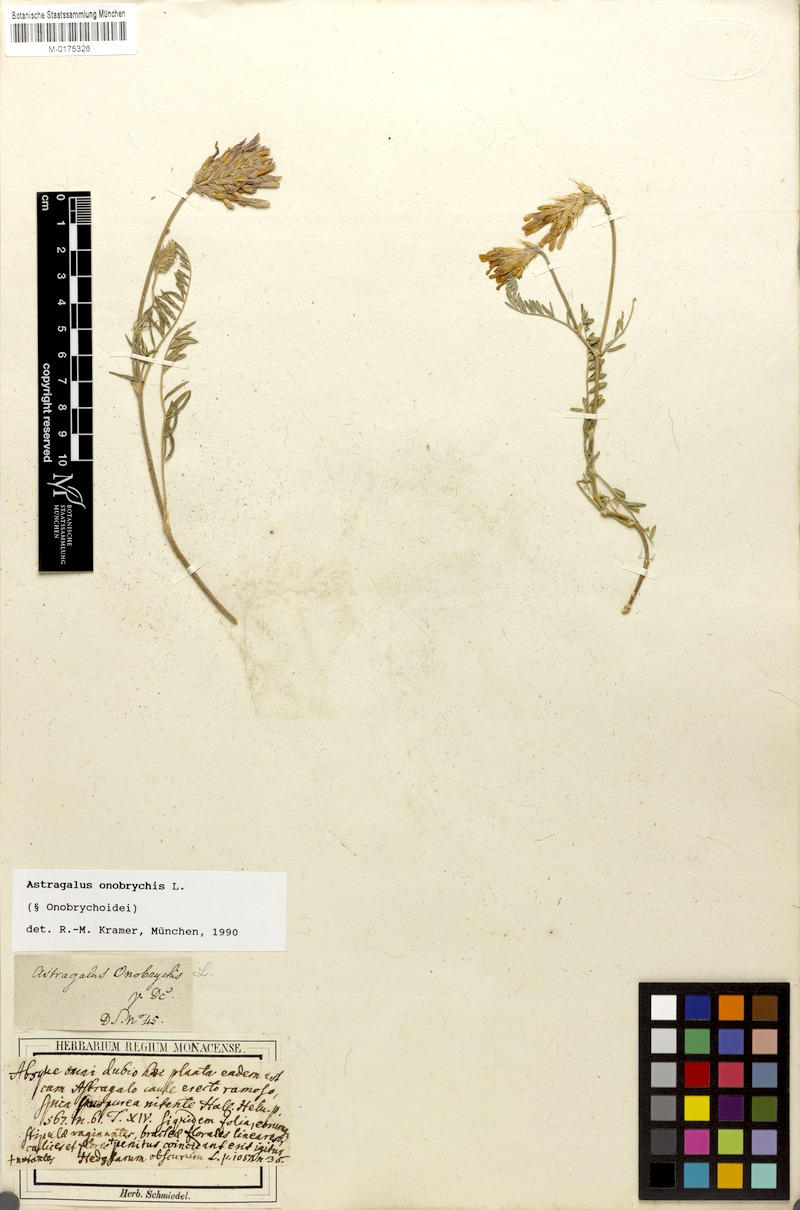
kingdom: Plantae
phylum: Tracheophyta
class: Magnoliopsida
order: Fabales
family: Fabaceae
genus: Astragalus
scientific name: Astragalus onobrychis
